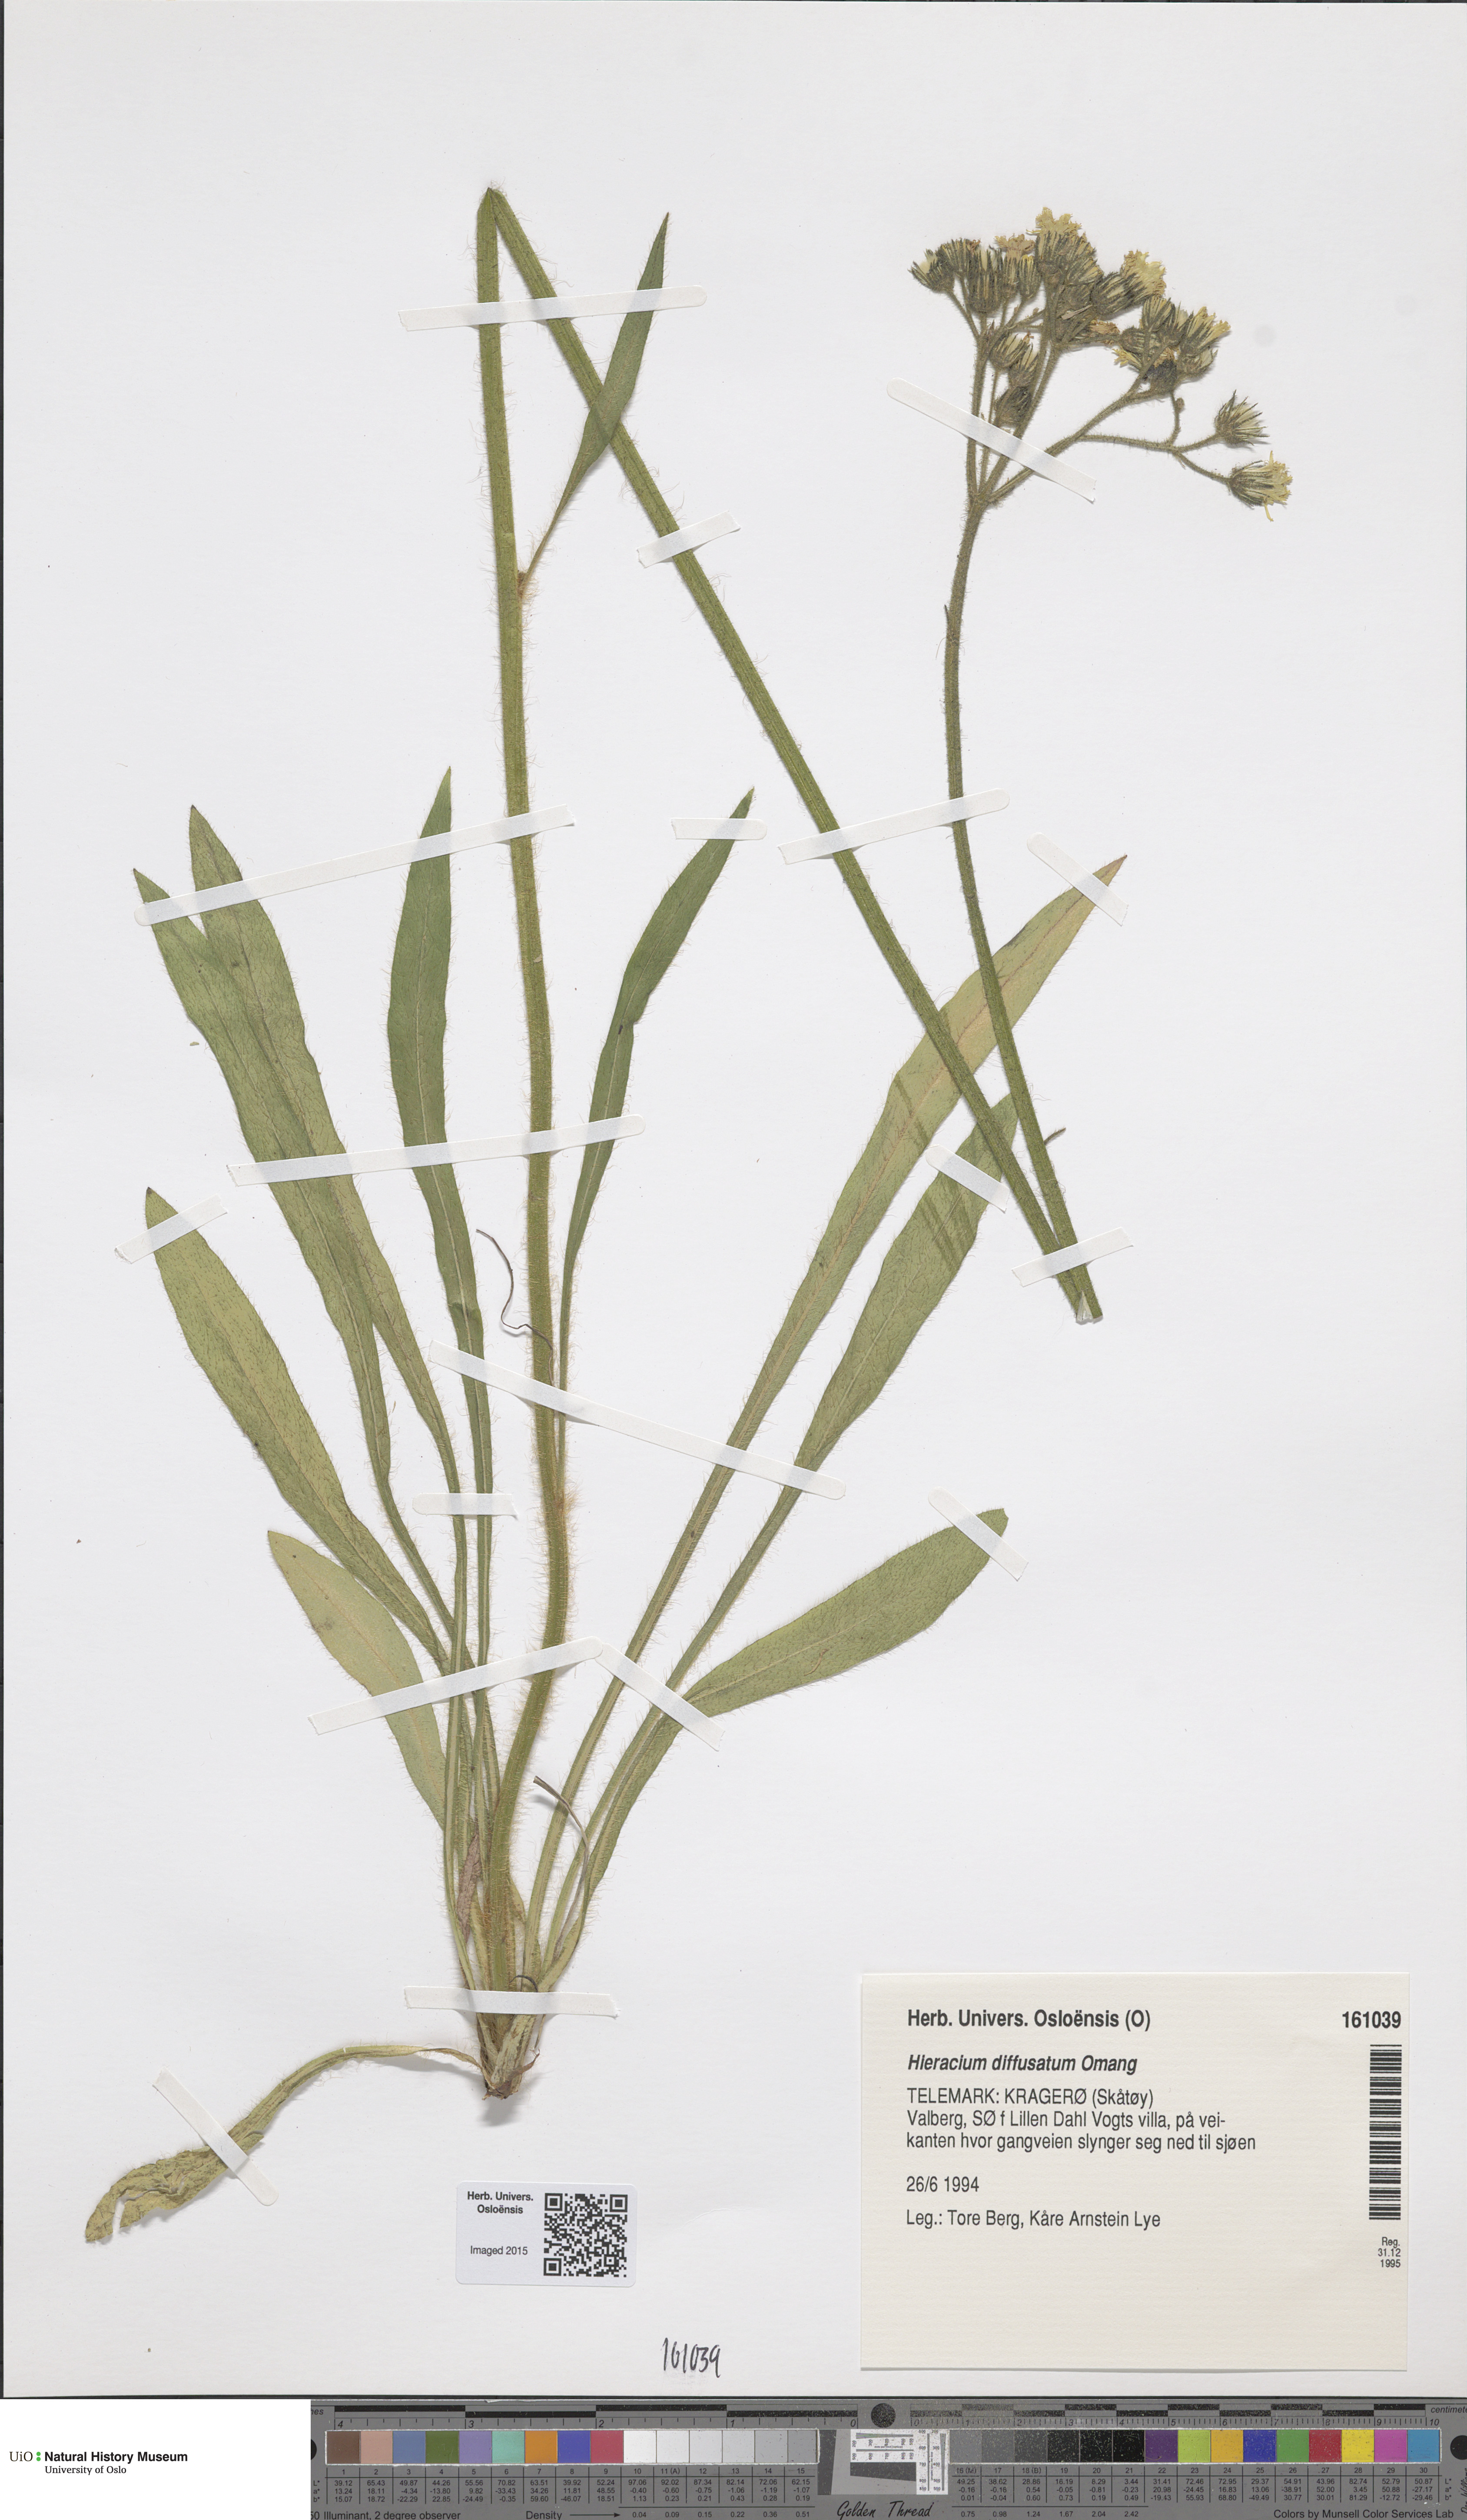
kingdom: Plantae
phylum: Tracheophyta
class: Magnoliopsida
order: Asterales
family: Asteraceae
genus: Pilosella
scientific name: Pilosella dubia
